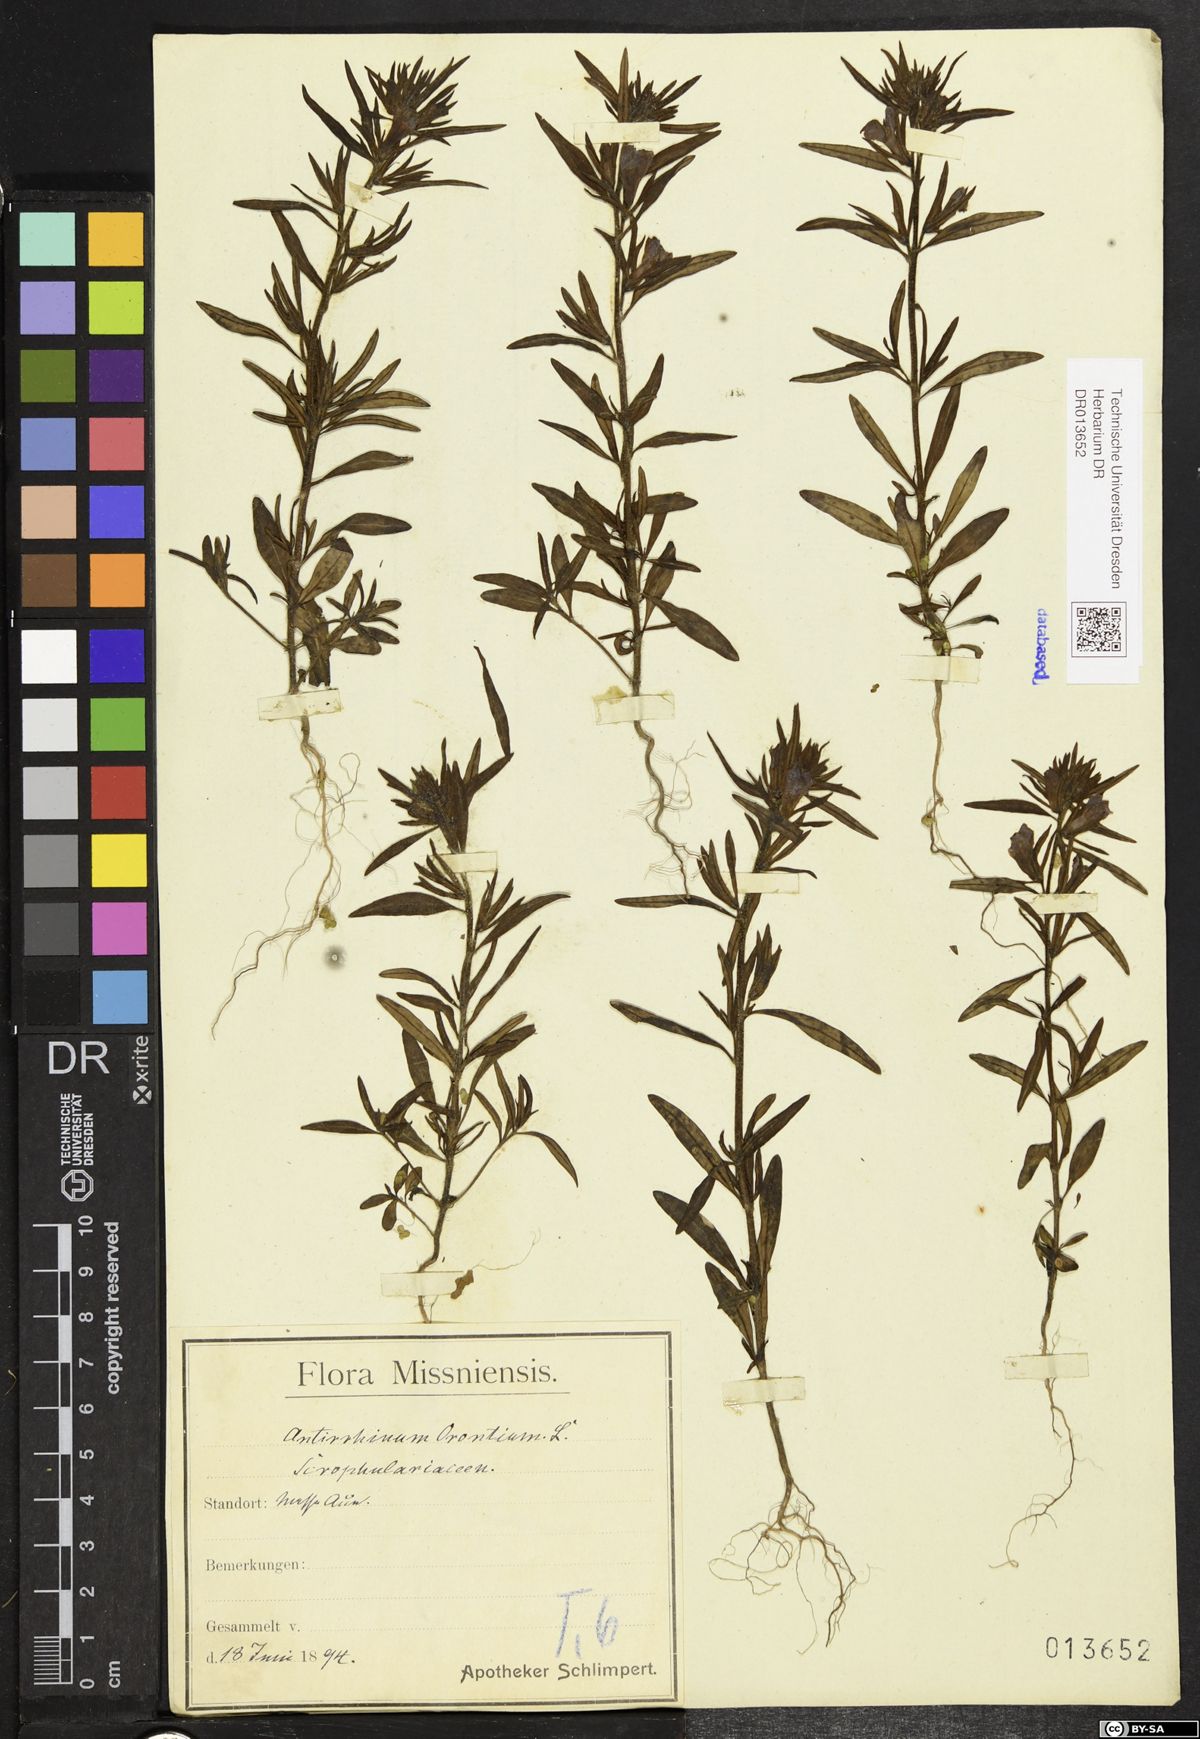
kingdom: Plantae
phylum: Tracheophyta
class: Magnoliopsida
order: Lamiales
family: Plantaginaceae
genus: Misopates
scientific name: Misopates orontium
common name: Weasel's-snout
